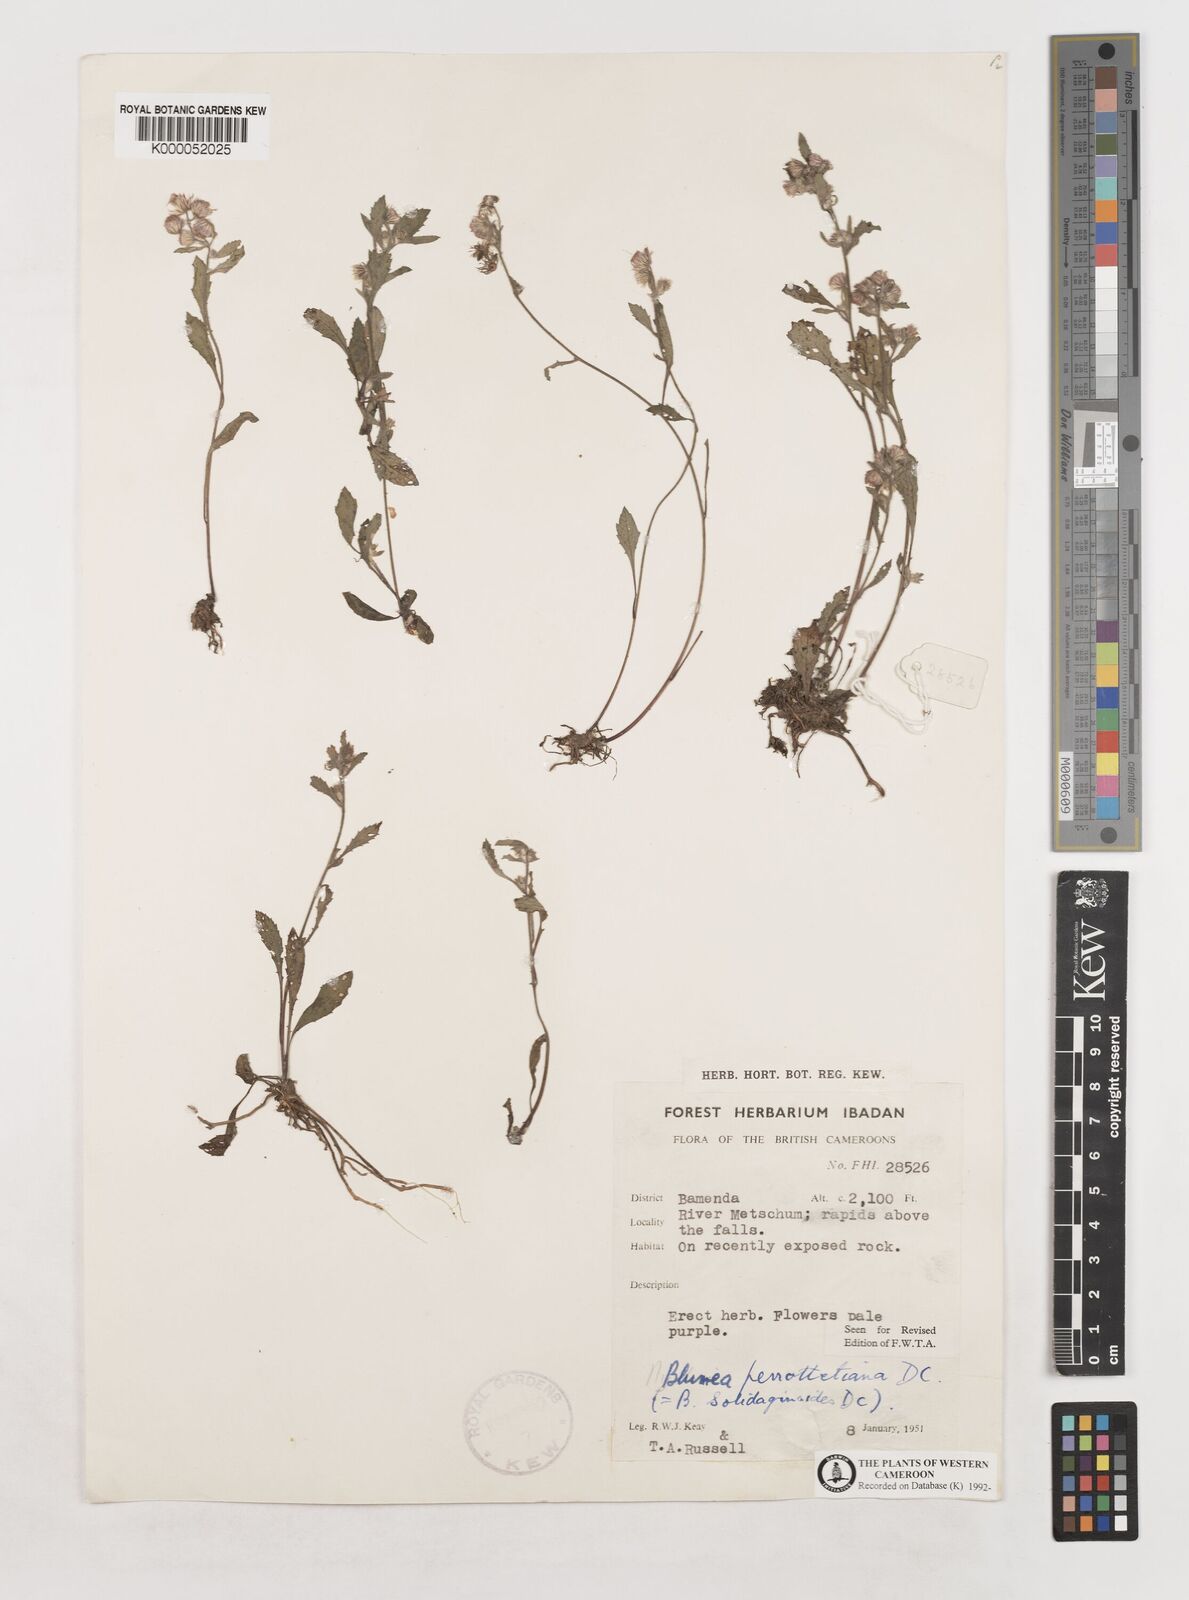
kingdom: Plantae
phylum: Tracheophyta
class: Magnoliopsida
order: Asterales
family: Asteraceae
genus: Blumea
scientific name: Blumea axillaris
